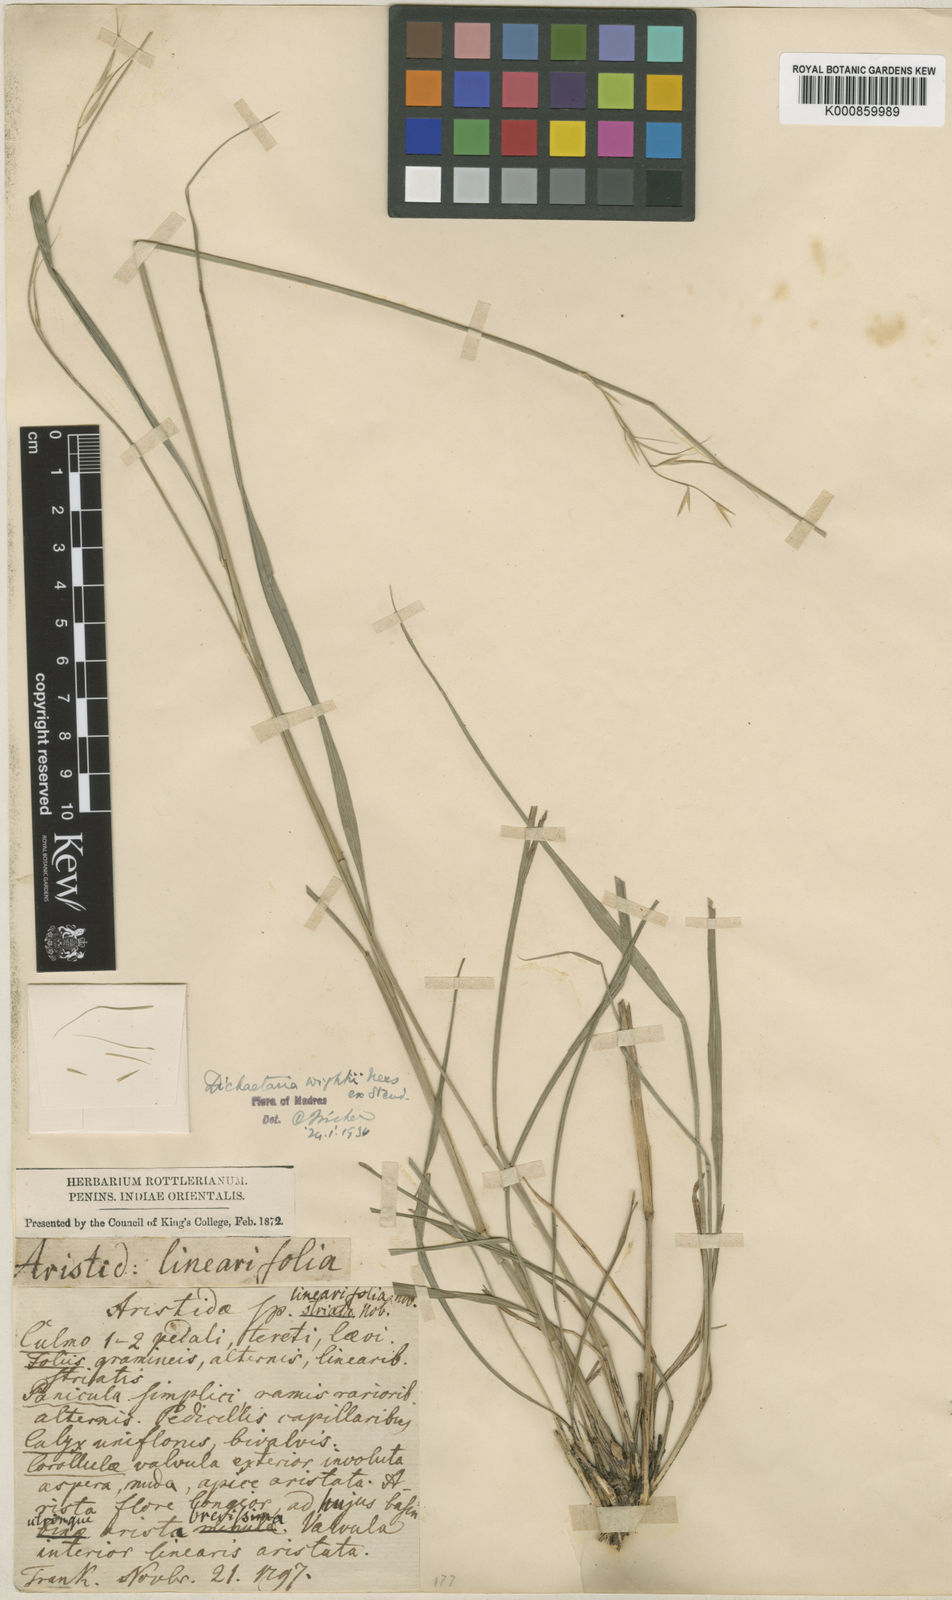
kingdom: Plantae
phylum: Tracheophyta
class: Liliopsida
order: Poales
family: Poaceae
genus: Dichaetaria
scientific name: Dichaetaria wightii
